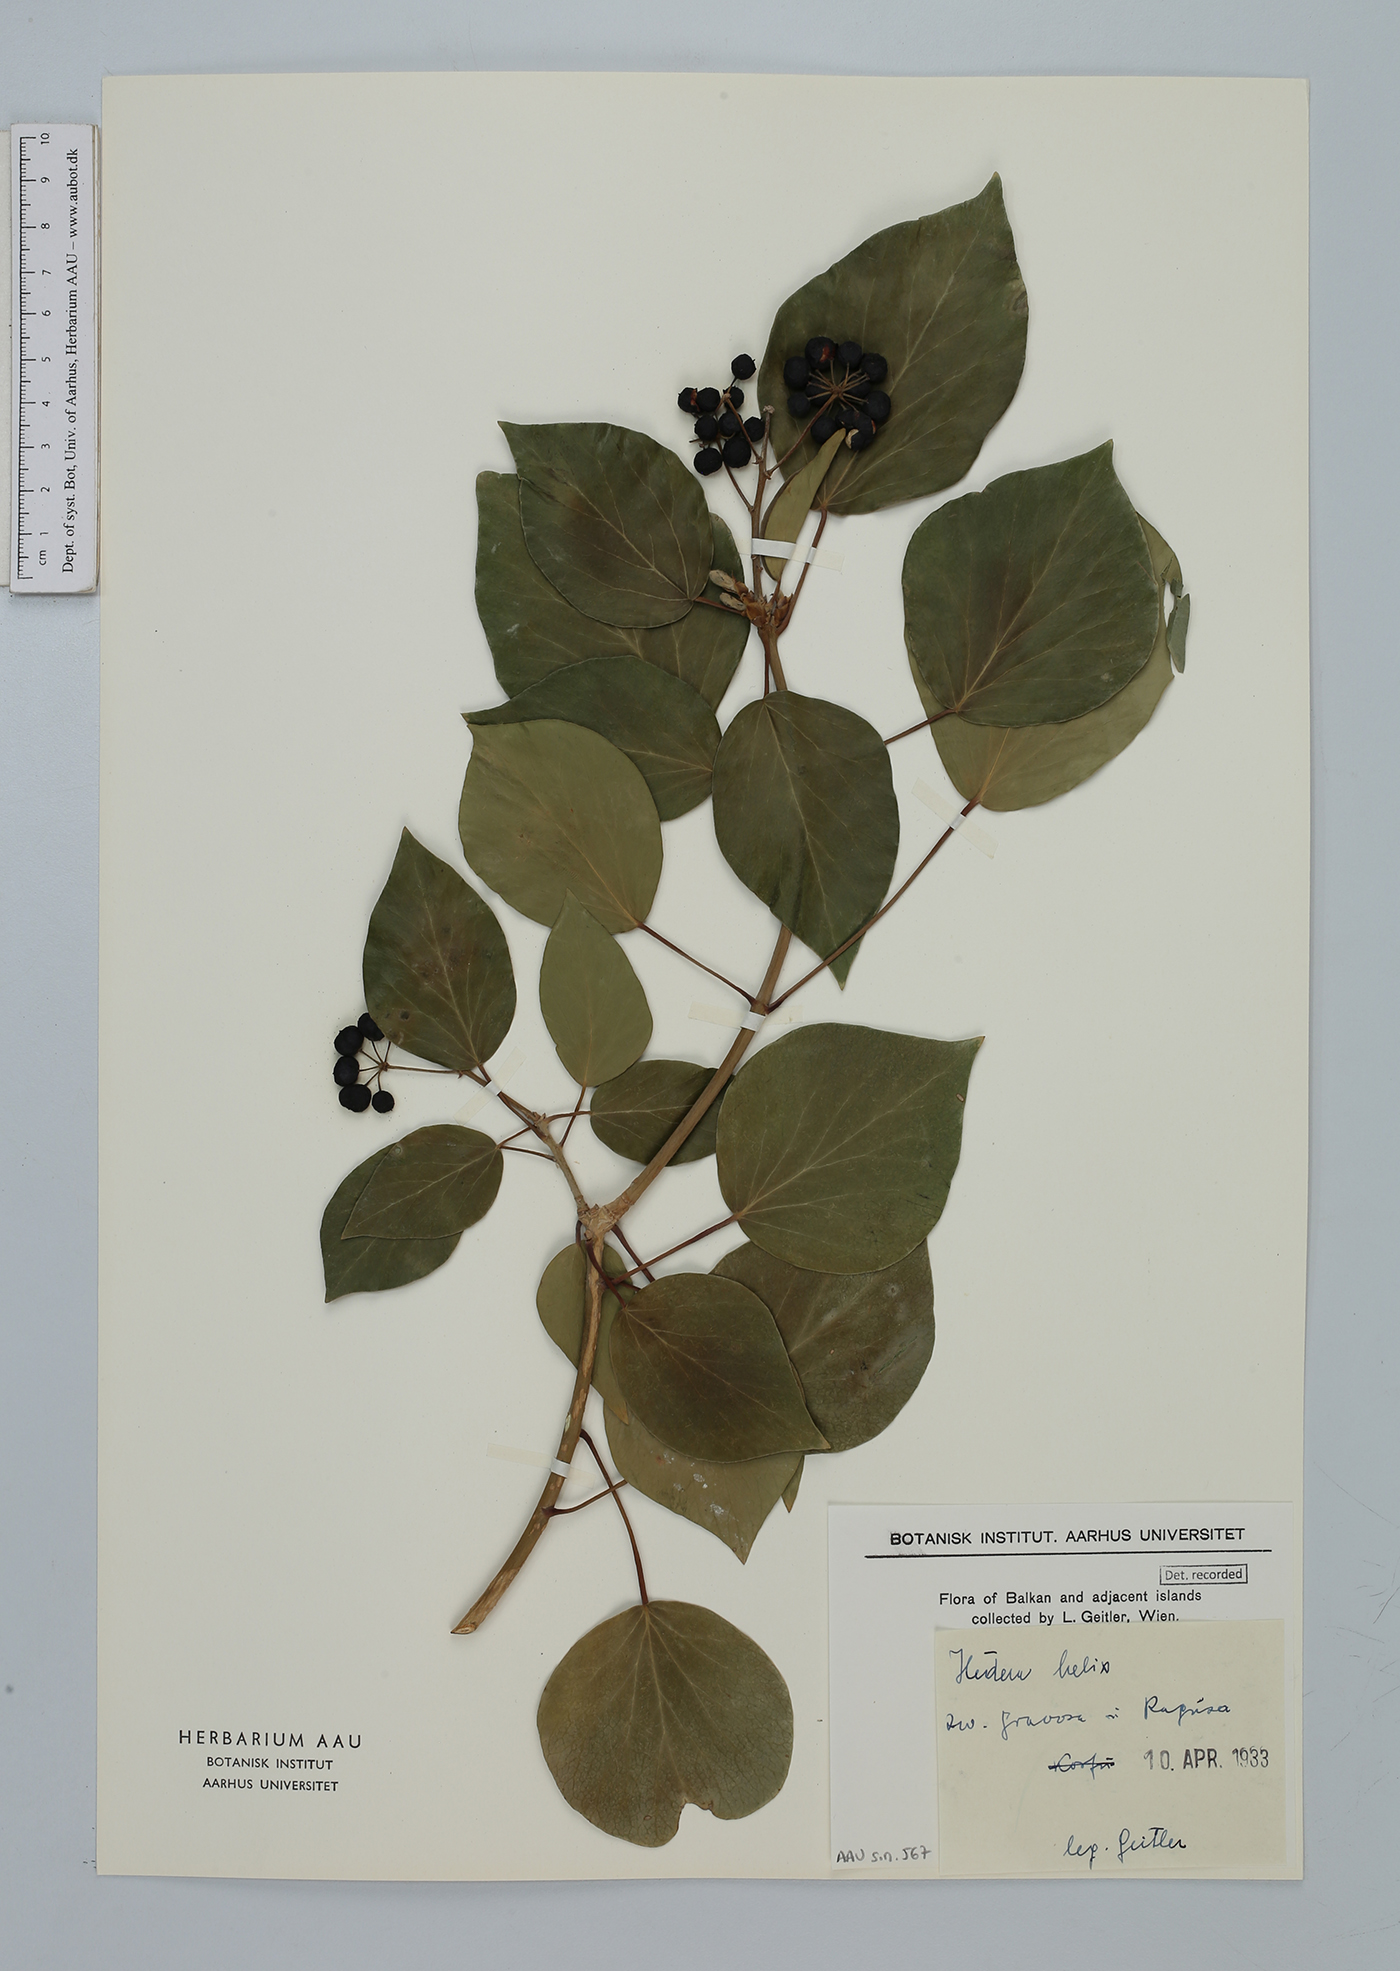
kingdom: Plantae
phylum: Tracheophyta
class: Magnoliopsida
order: Apiales
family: Araliaceae
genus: Hedera
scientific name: Hedera helix
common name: Ivy
